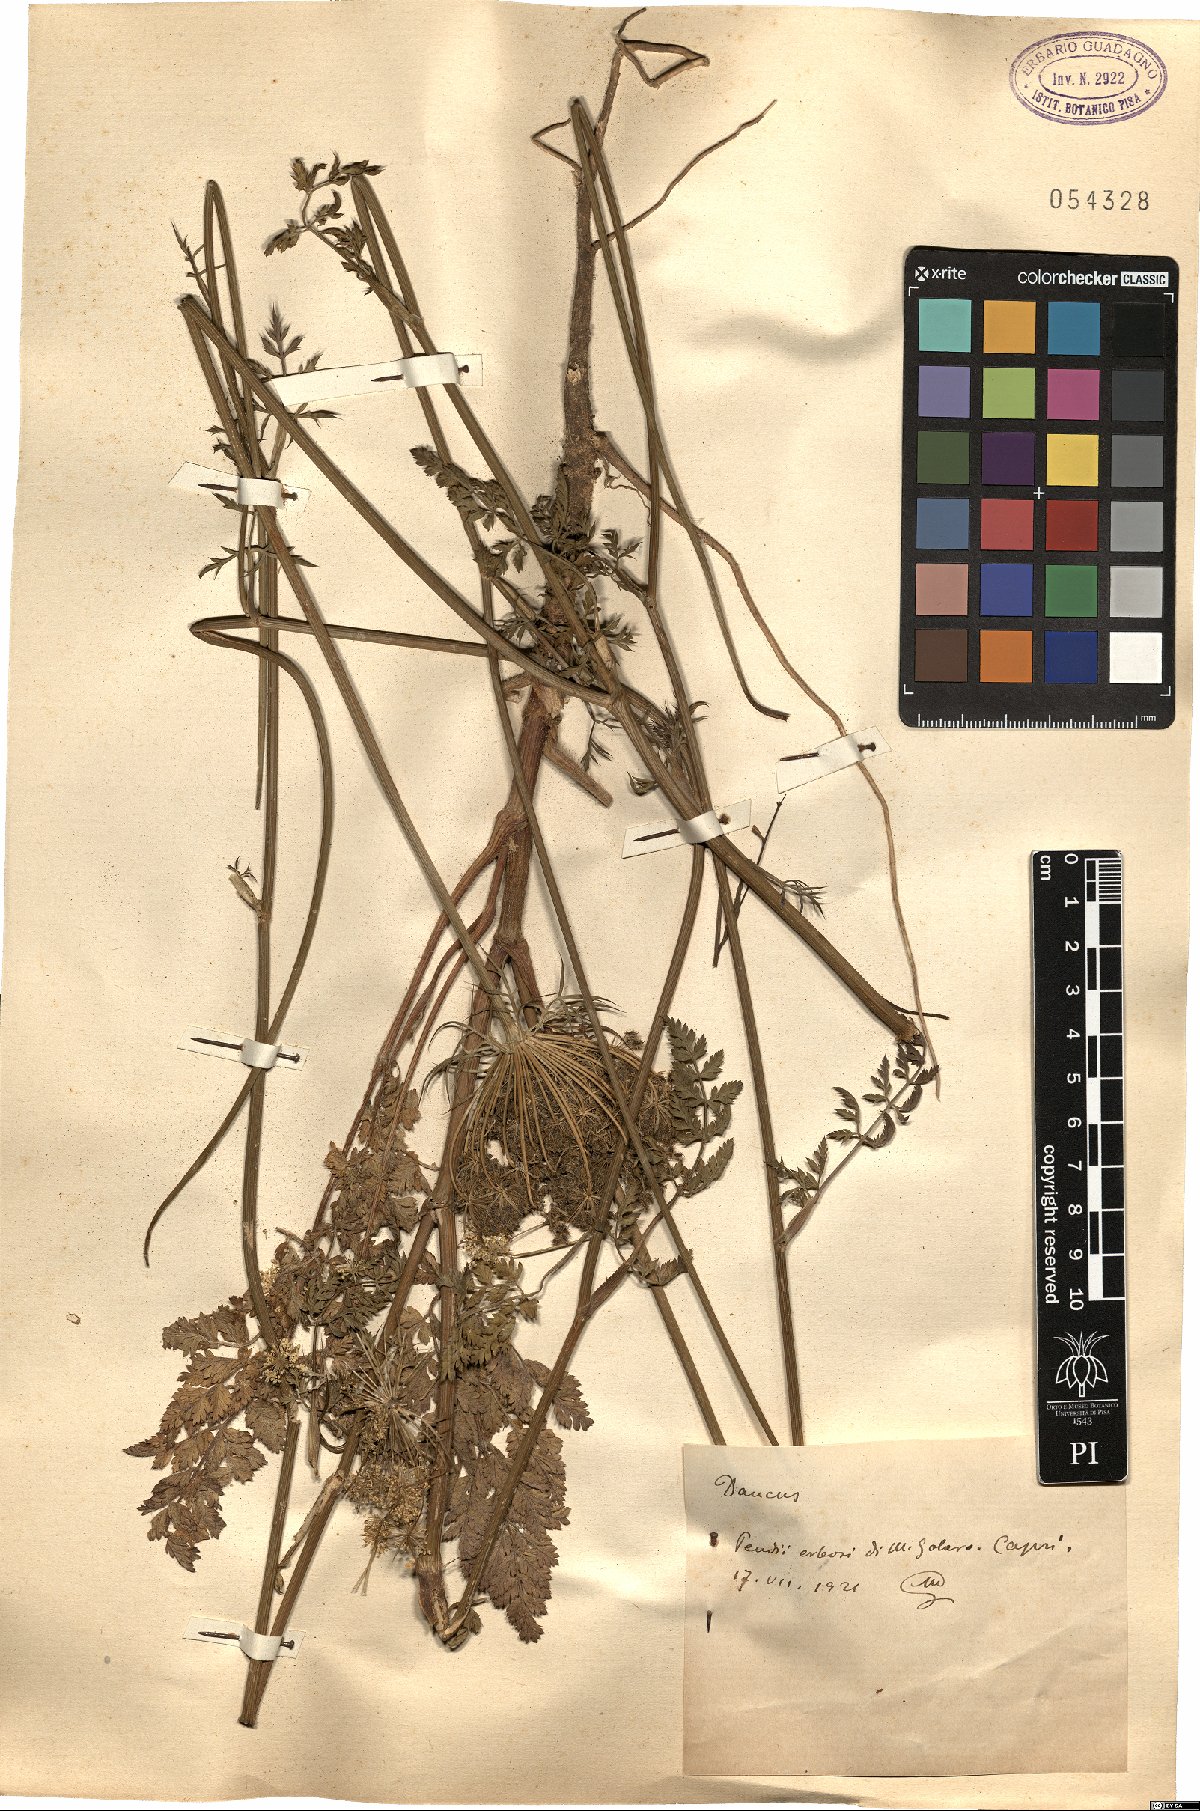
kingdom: Plantae
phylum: Tracheophyta
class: Magnoliopsida
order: Apiales
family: Apiaceae
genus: Daucus
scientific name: Daucus
